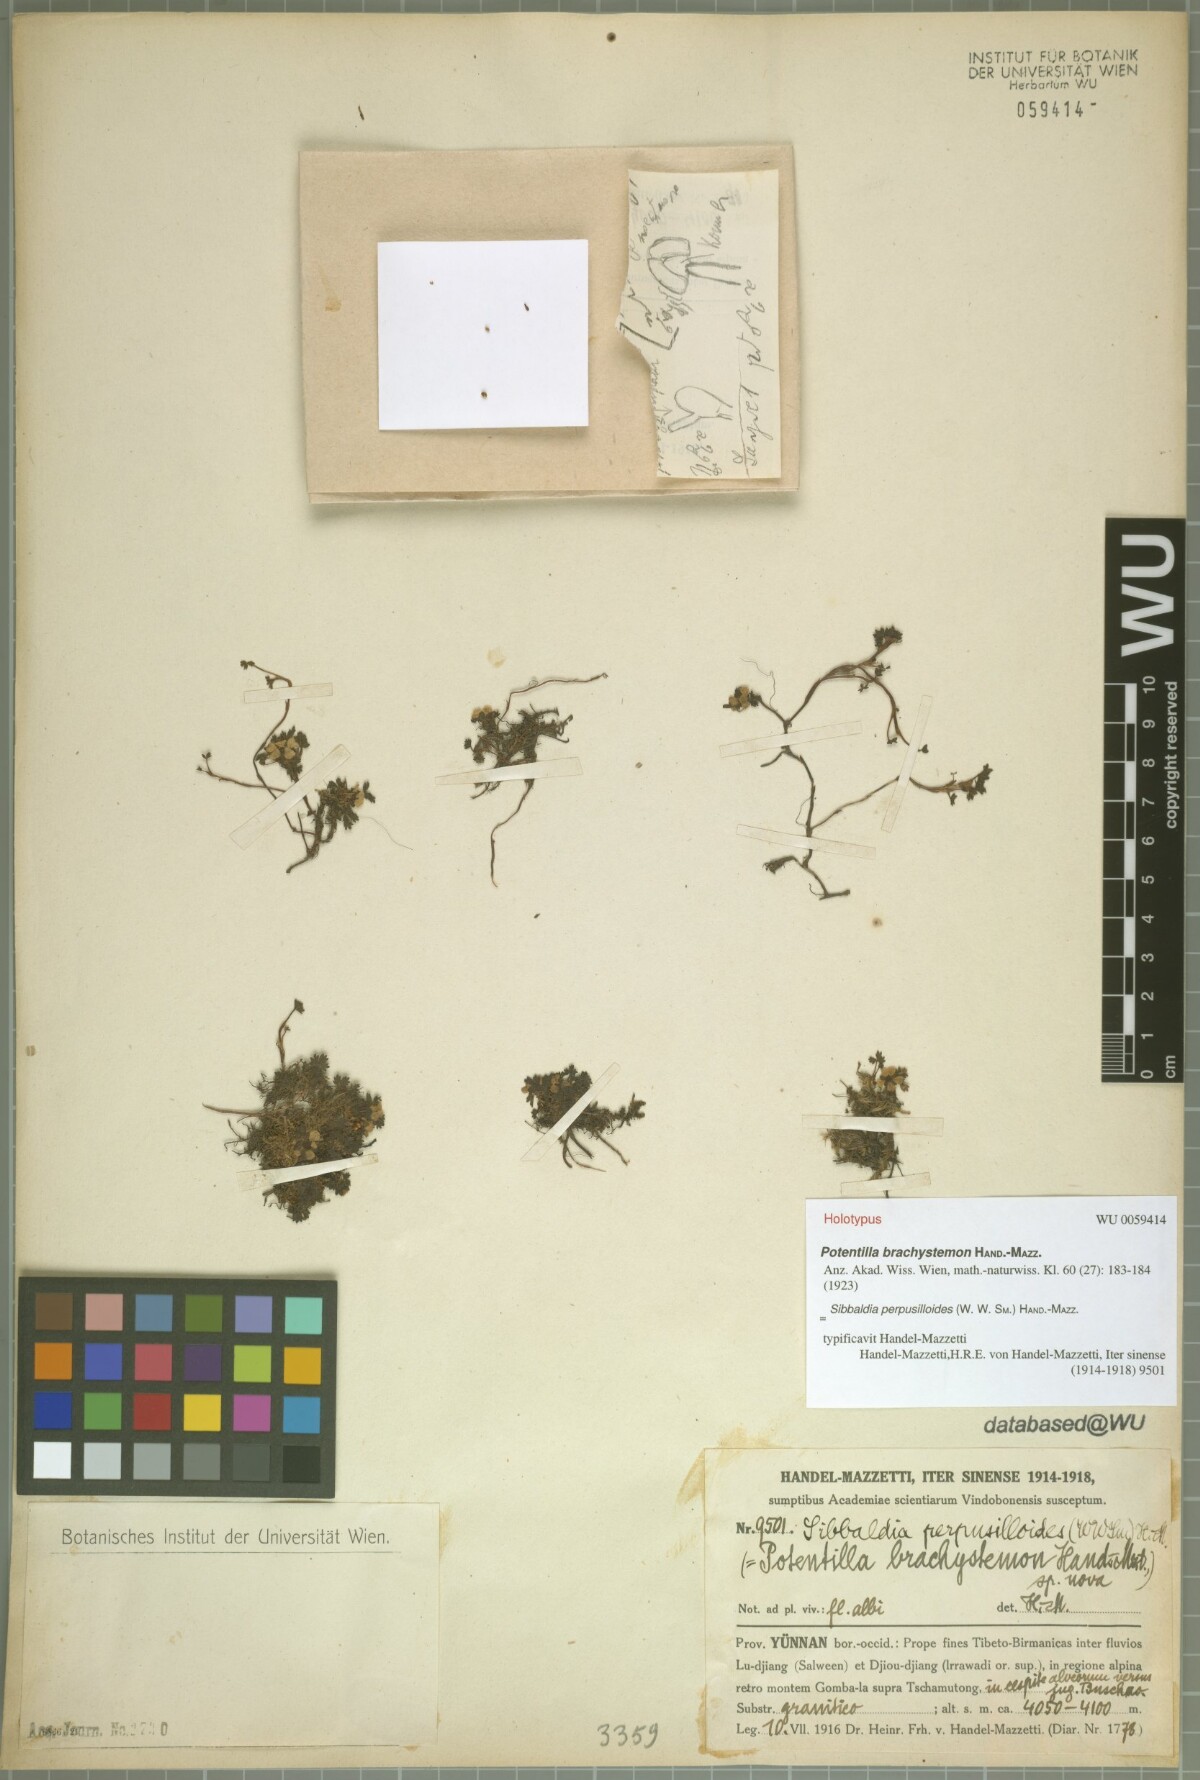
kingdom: Plantae
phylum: Tracheophyta
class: Magnoliopsida
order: Rosales
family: Rosaceae
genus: Chamaecallis
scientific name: Chamaecallis perpusilloides
